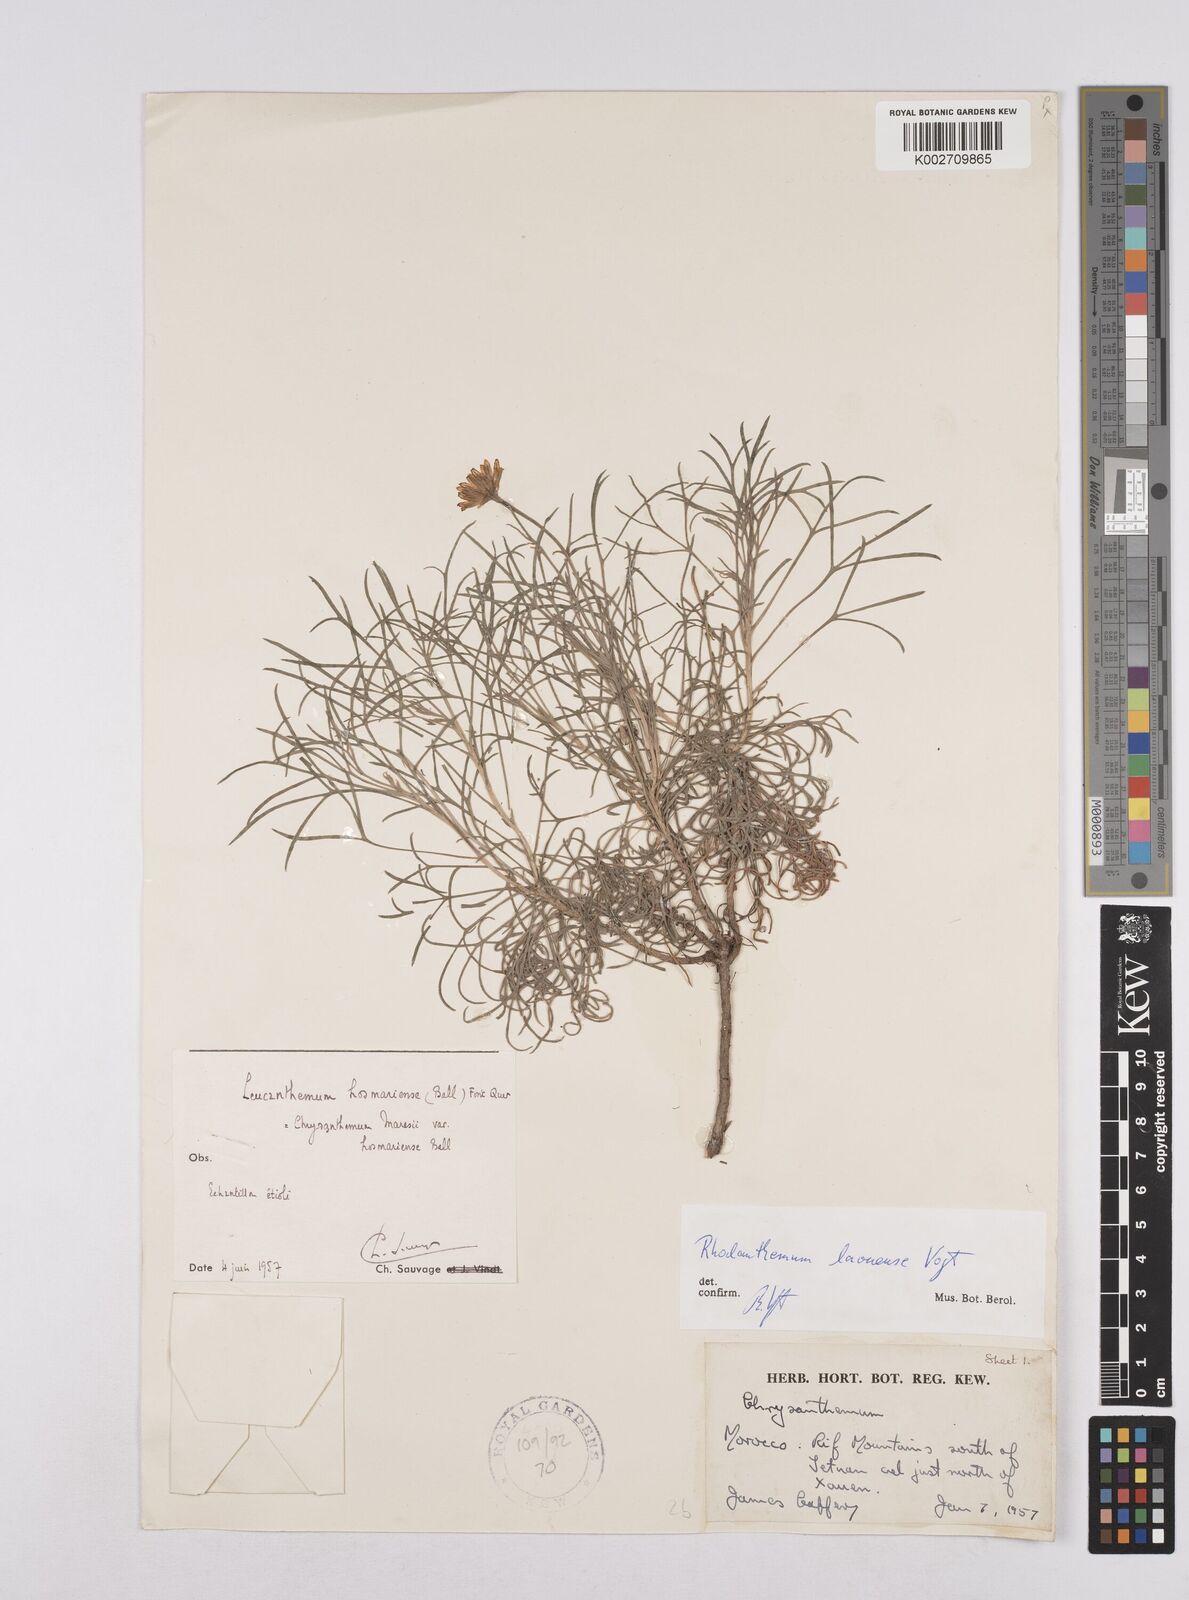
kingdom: Plantae
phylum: Tracheophyta
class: Magnoliopsida
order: Asterales
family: Asteraceae
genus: Rhodanthemum
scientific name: Rhodanthemum laouense
